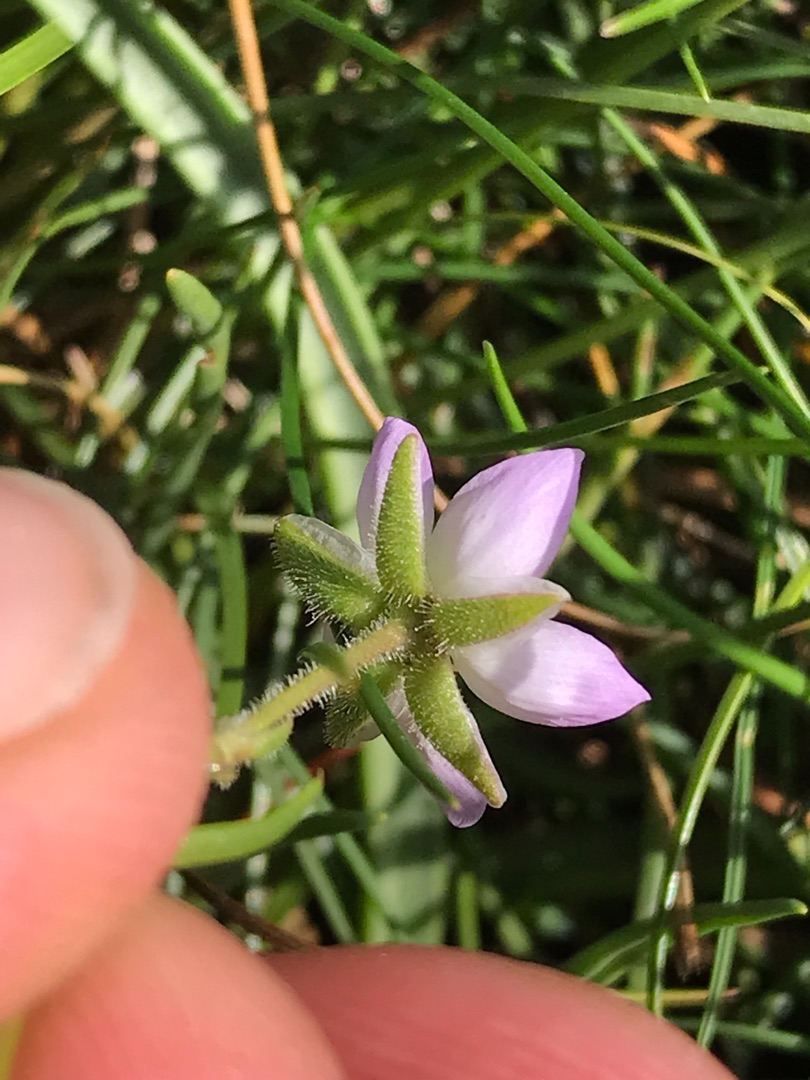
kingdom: Plantae
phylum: Tracheophyta
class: Magnoliopsida
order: Caryophyllales
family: Caryophyllaceae
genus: Spergularia
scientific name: Spergularia
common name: Hindeknæslægten
